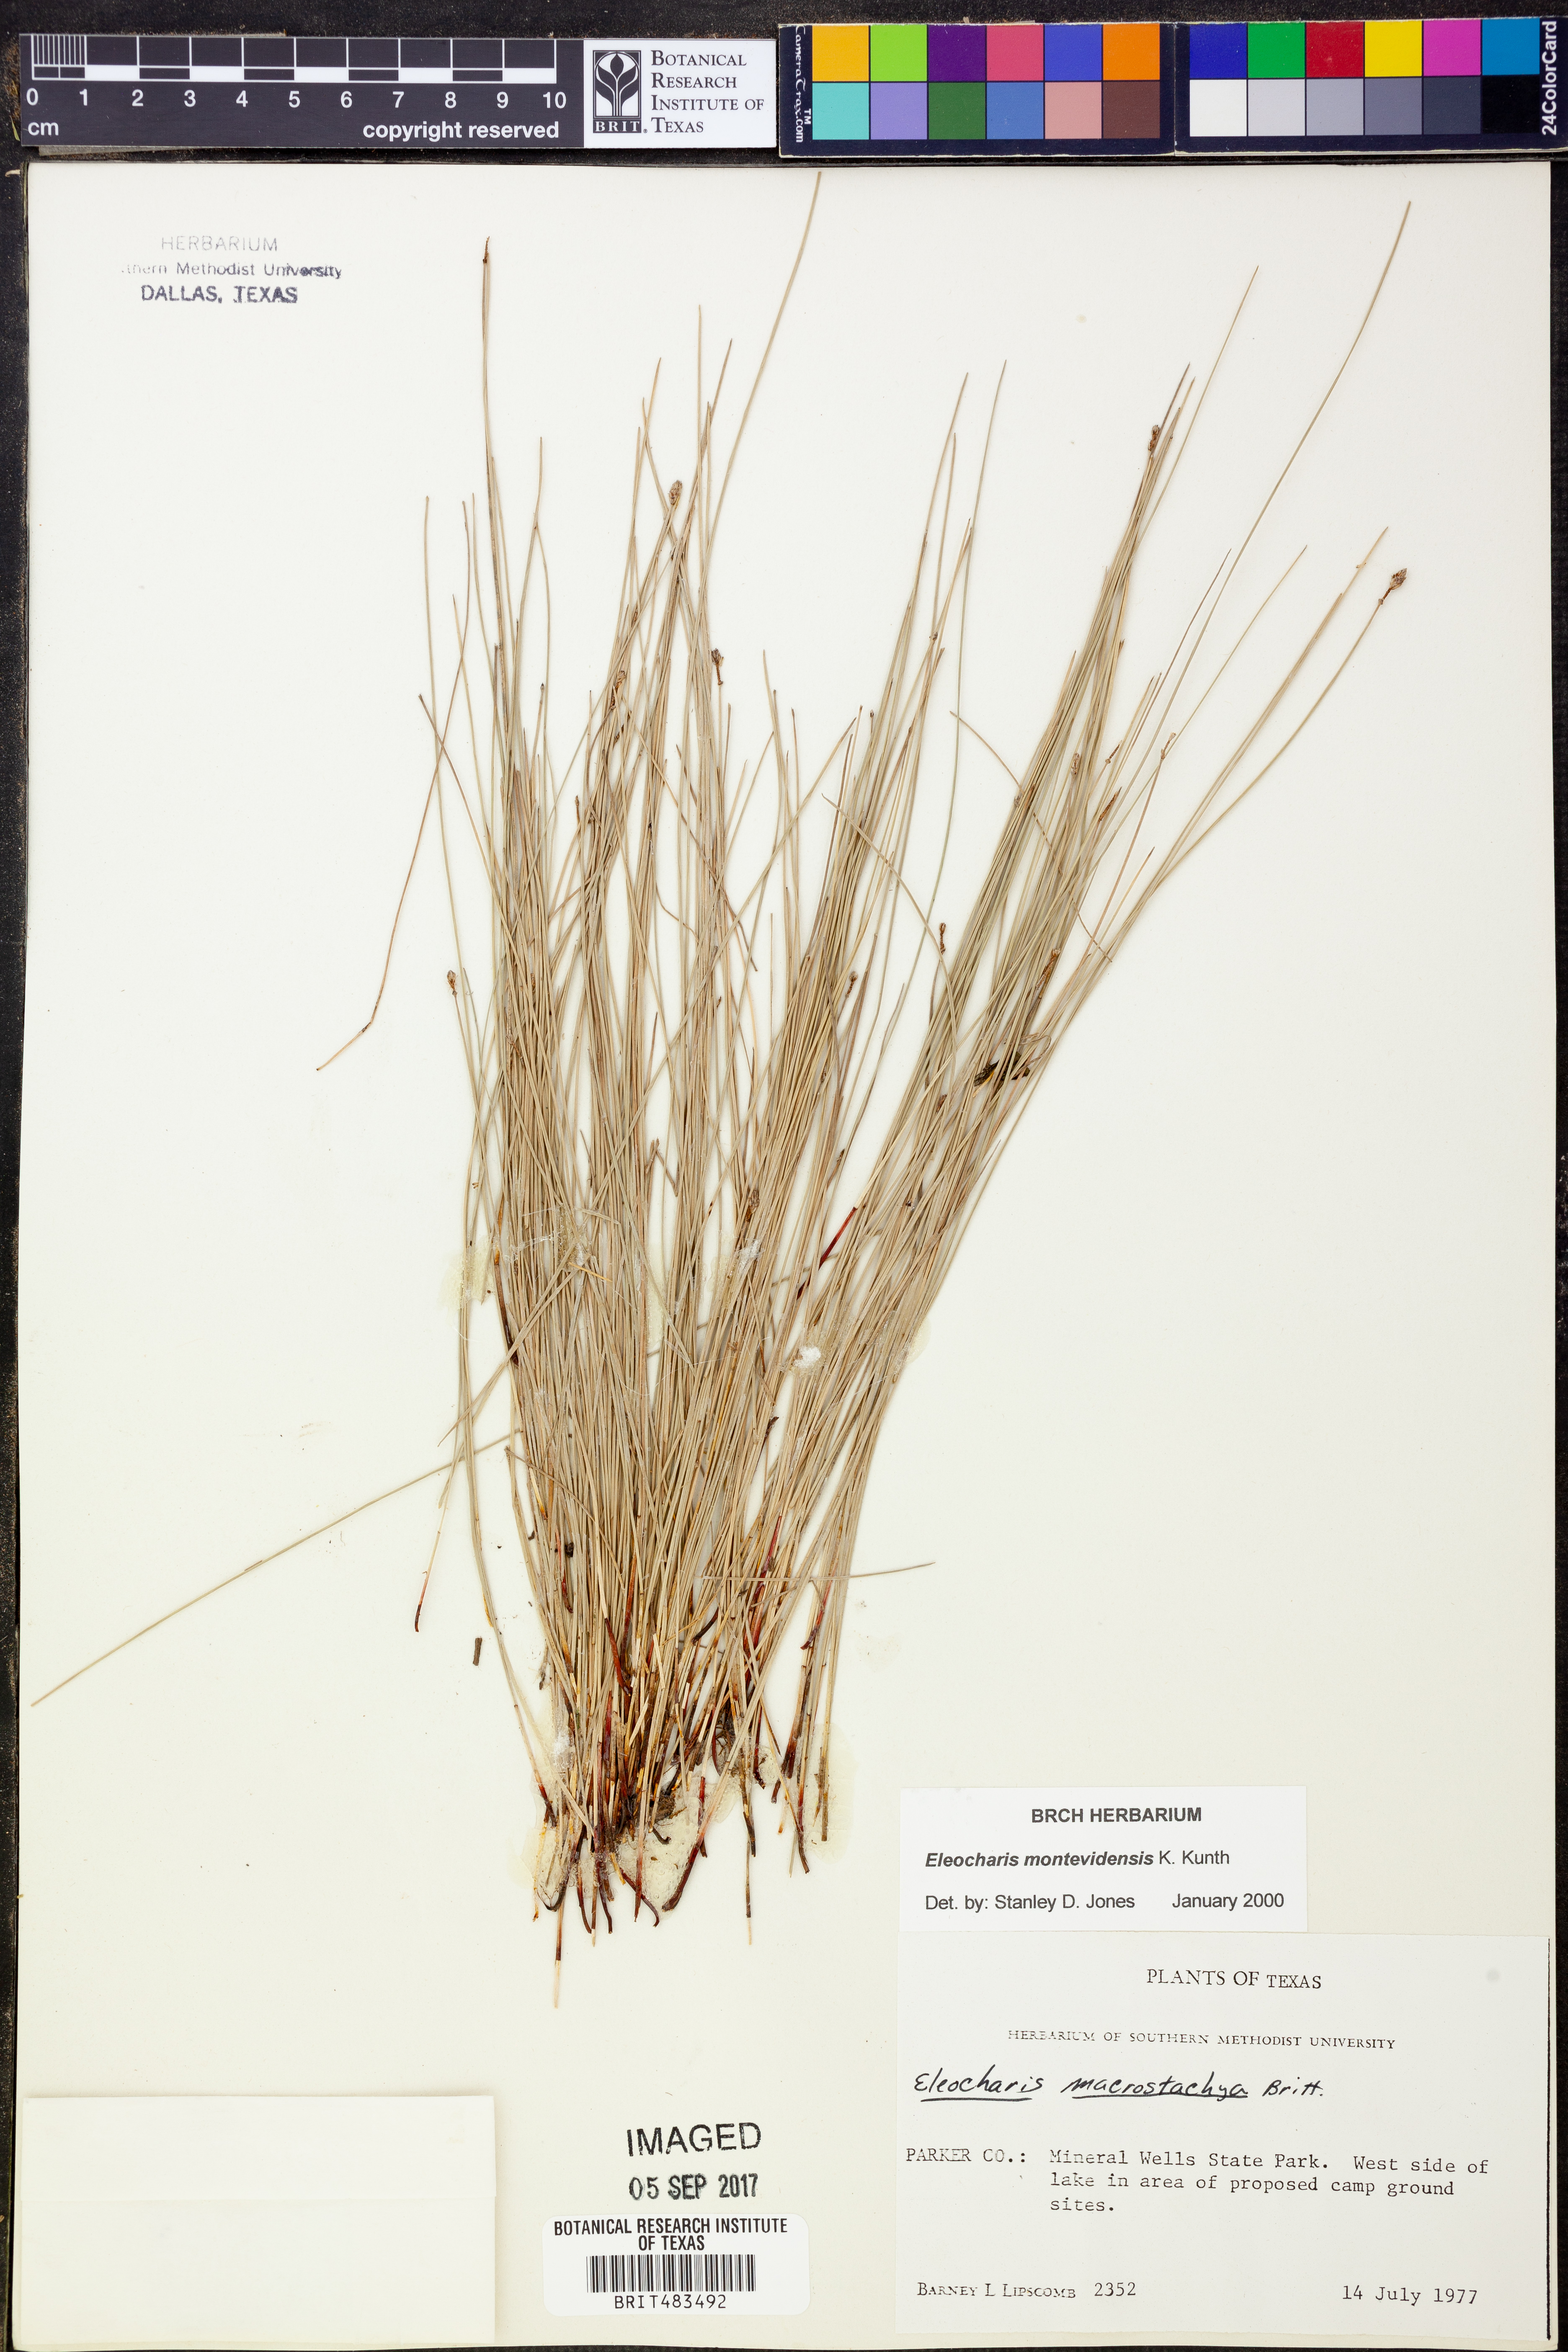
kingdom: Plantae
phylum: Tracheophyta
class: Liliopsida
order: Poales
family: Cyperaceae
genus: Eleocharis
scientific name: Eleocharis montevidensis
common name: Sand spike-rush
